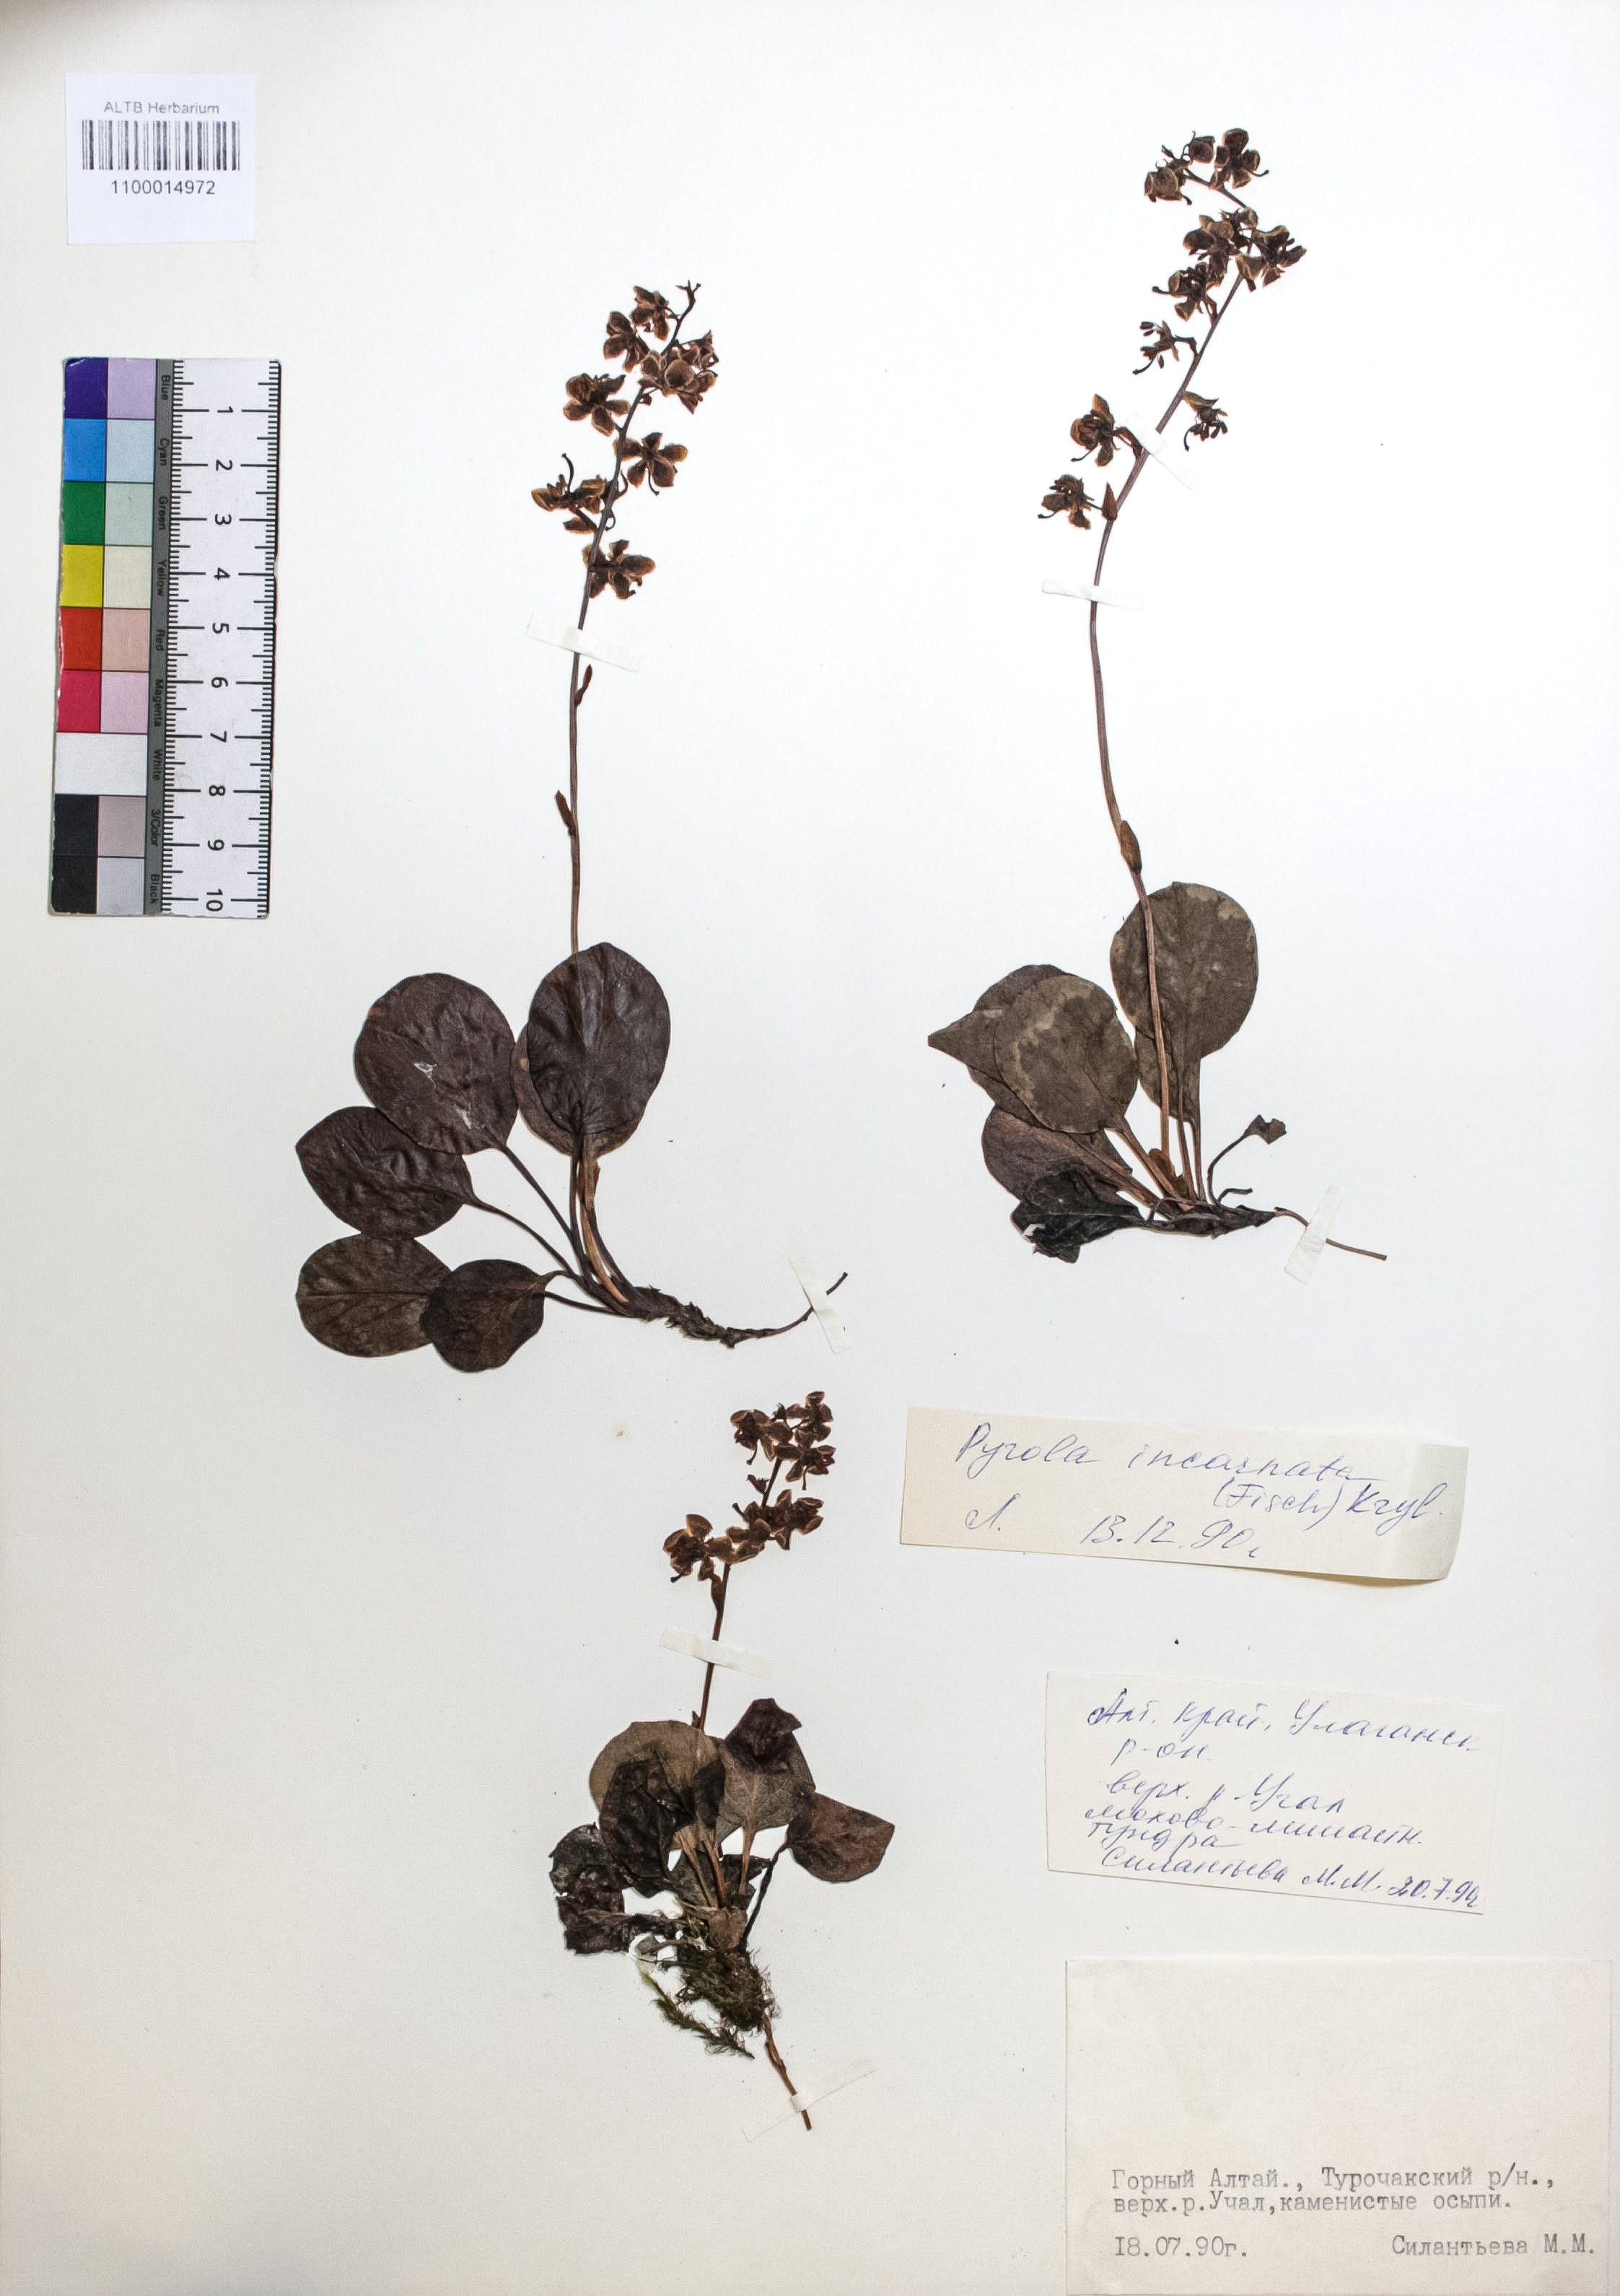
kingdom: Plantae
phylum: Tracheophyta
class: Magnoliopsida
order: Ericales
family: Ericaceae
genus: Pyrola
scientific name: Pyrola asarifolia
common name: Bog wintergreen
